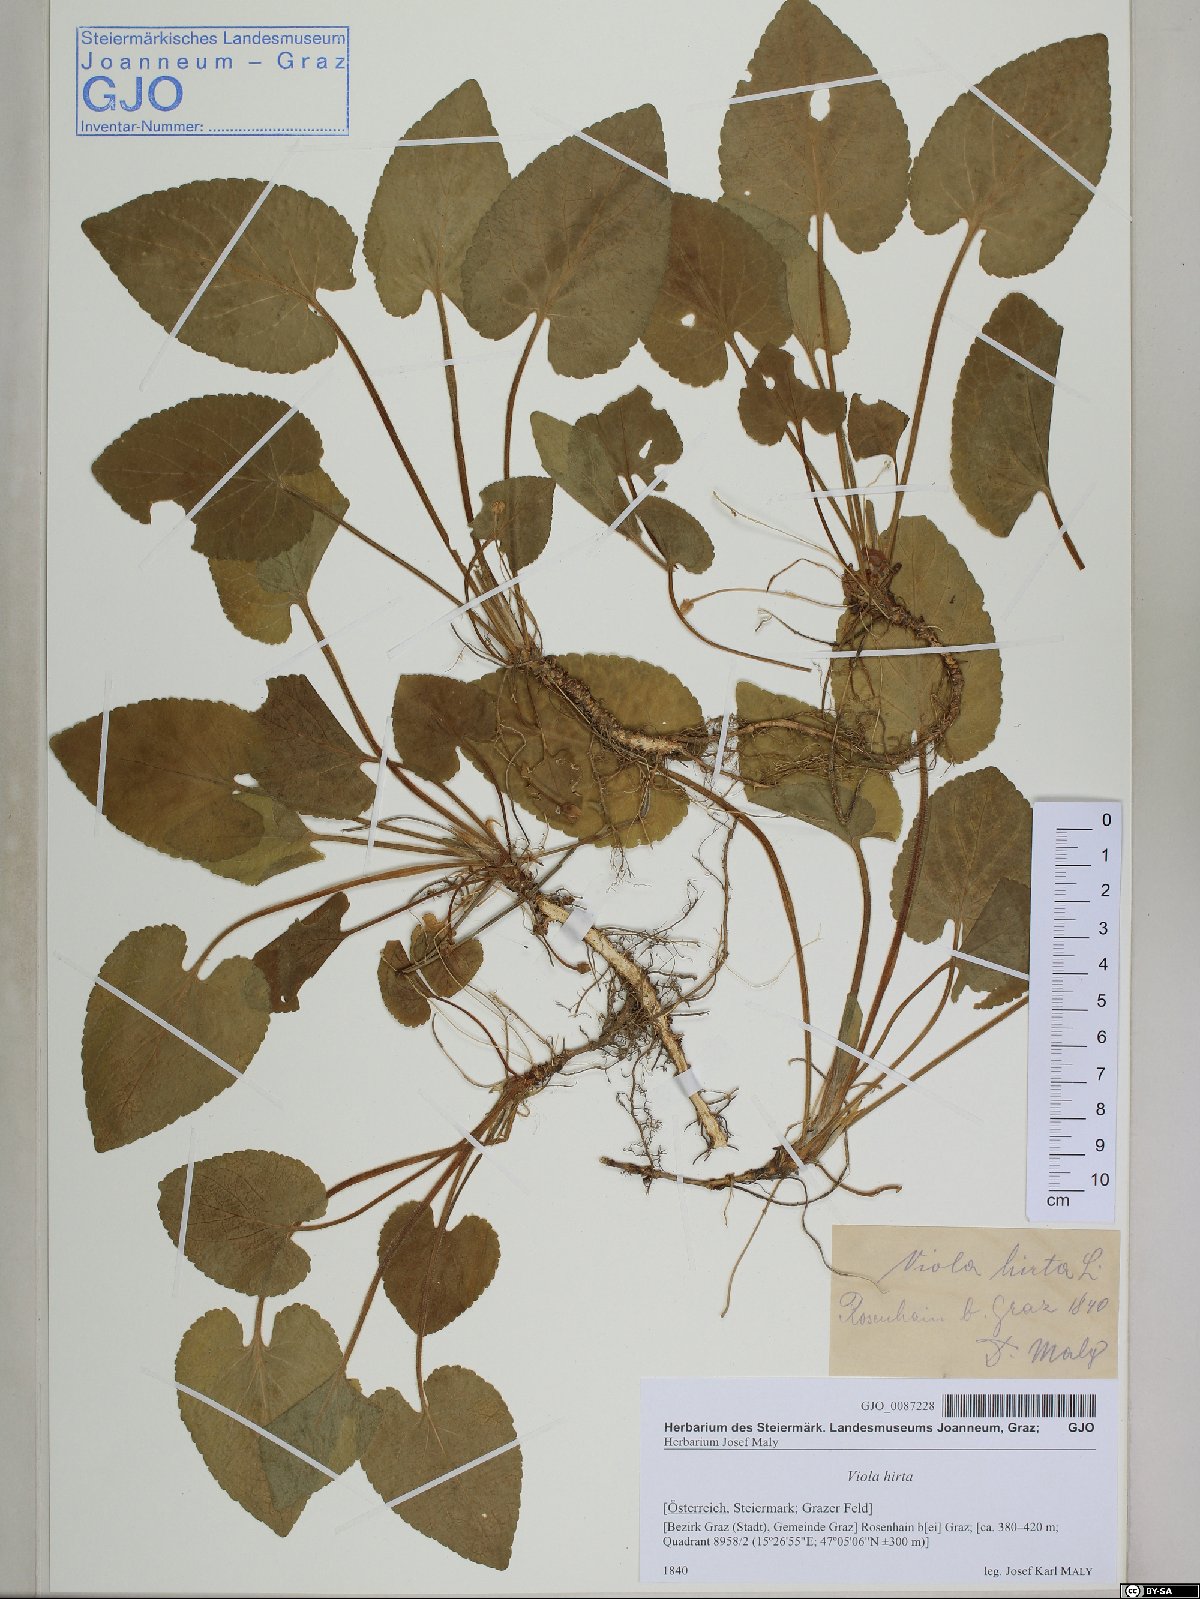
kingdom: Plantae
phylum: Tracheophyta
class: Magnoliopsida
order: Malpighiales
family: Violaceae
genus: Viola
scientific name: Viola hirta
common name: Hairy violet
